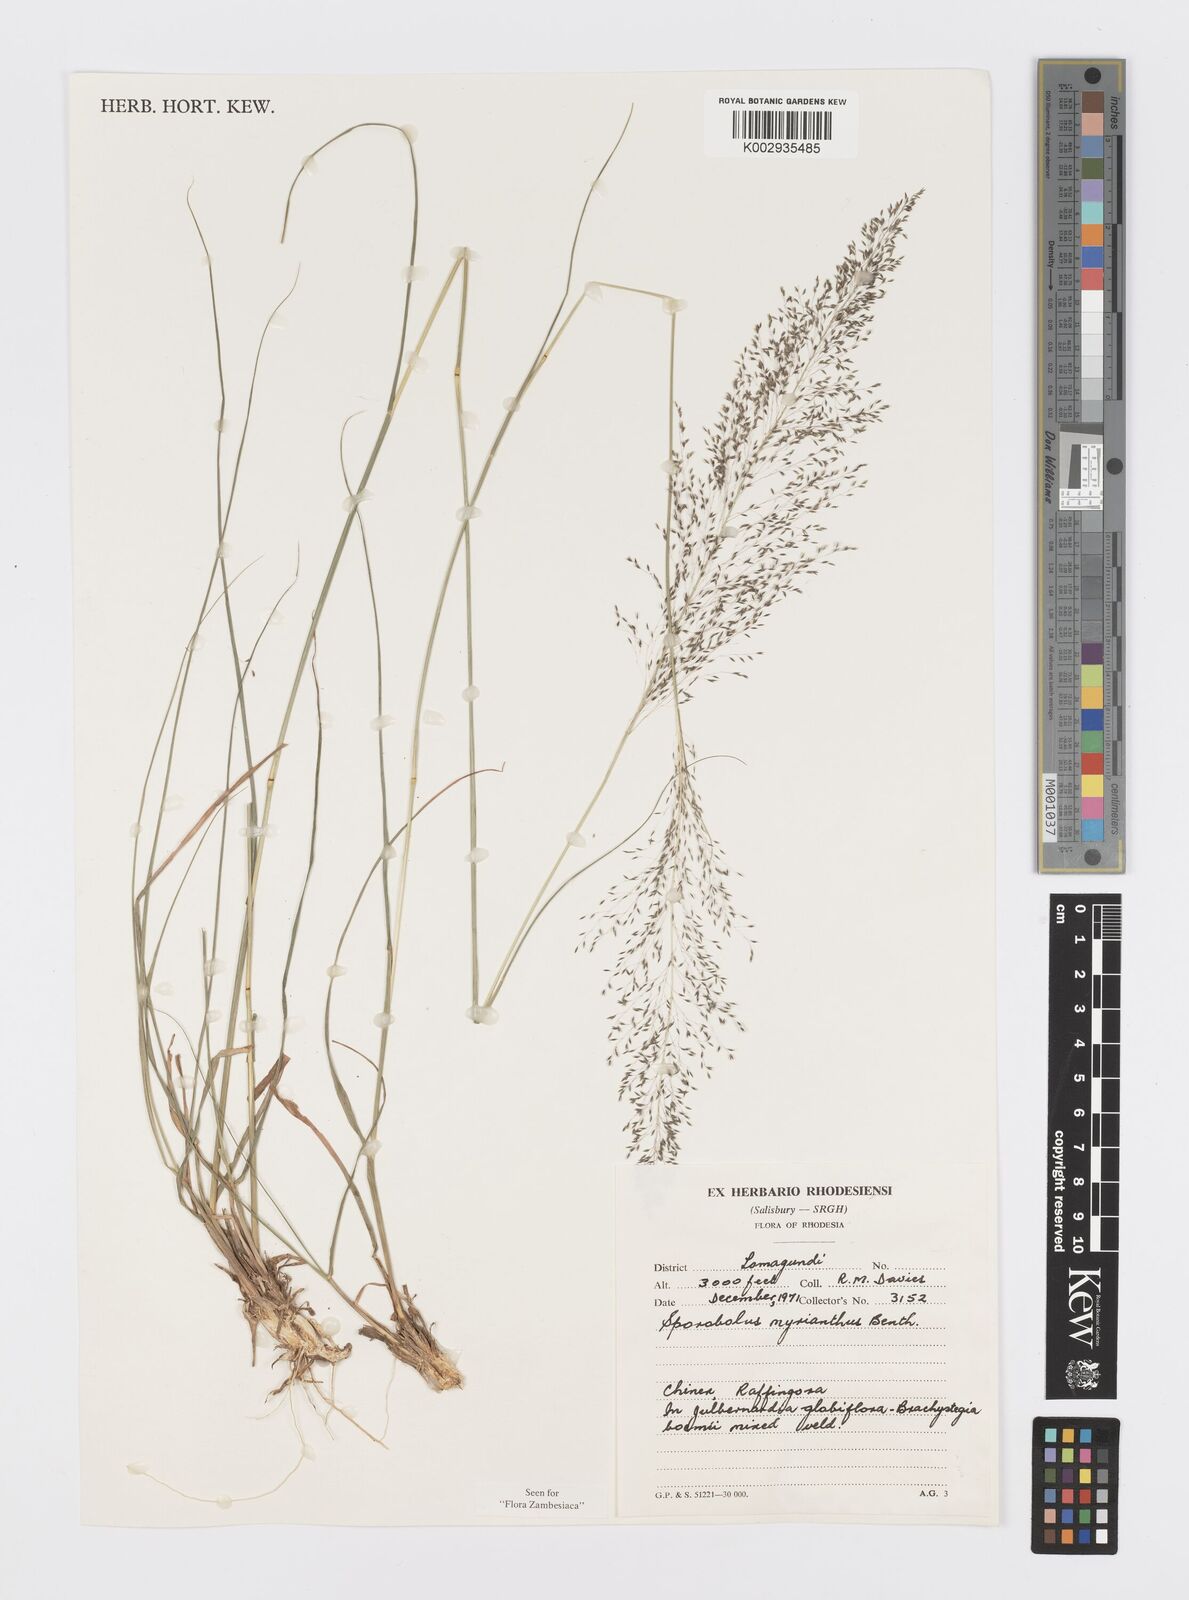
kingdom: Plantae
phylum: Tracheophyta
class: Liliopsida
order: Poales
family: Poaceae
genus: Sporobolus
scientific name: Sporobolus myrianthus
